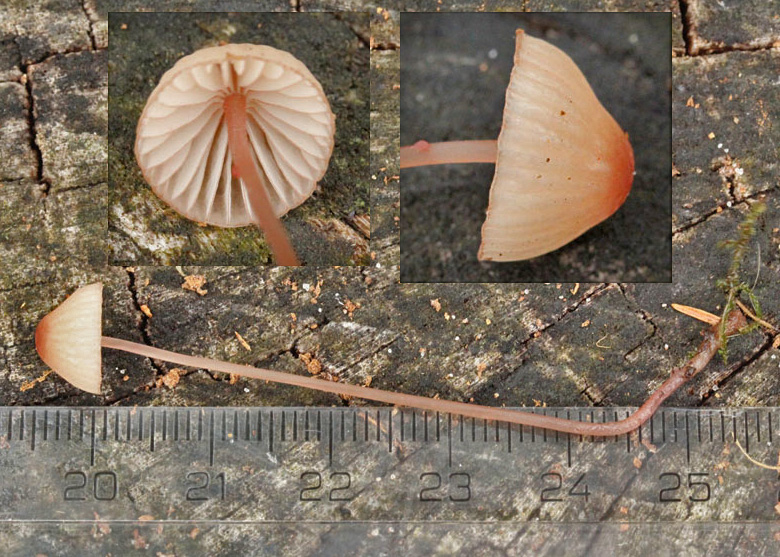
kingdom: Fungi
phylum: Basidiomycota
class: Agaricomycetes
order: Agaricales
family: Mycenaceae
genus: Mycena
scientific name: Mycena sanguinolenta
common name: rødmælket huesvamp
